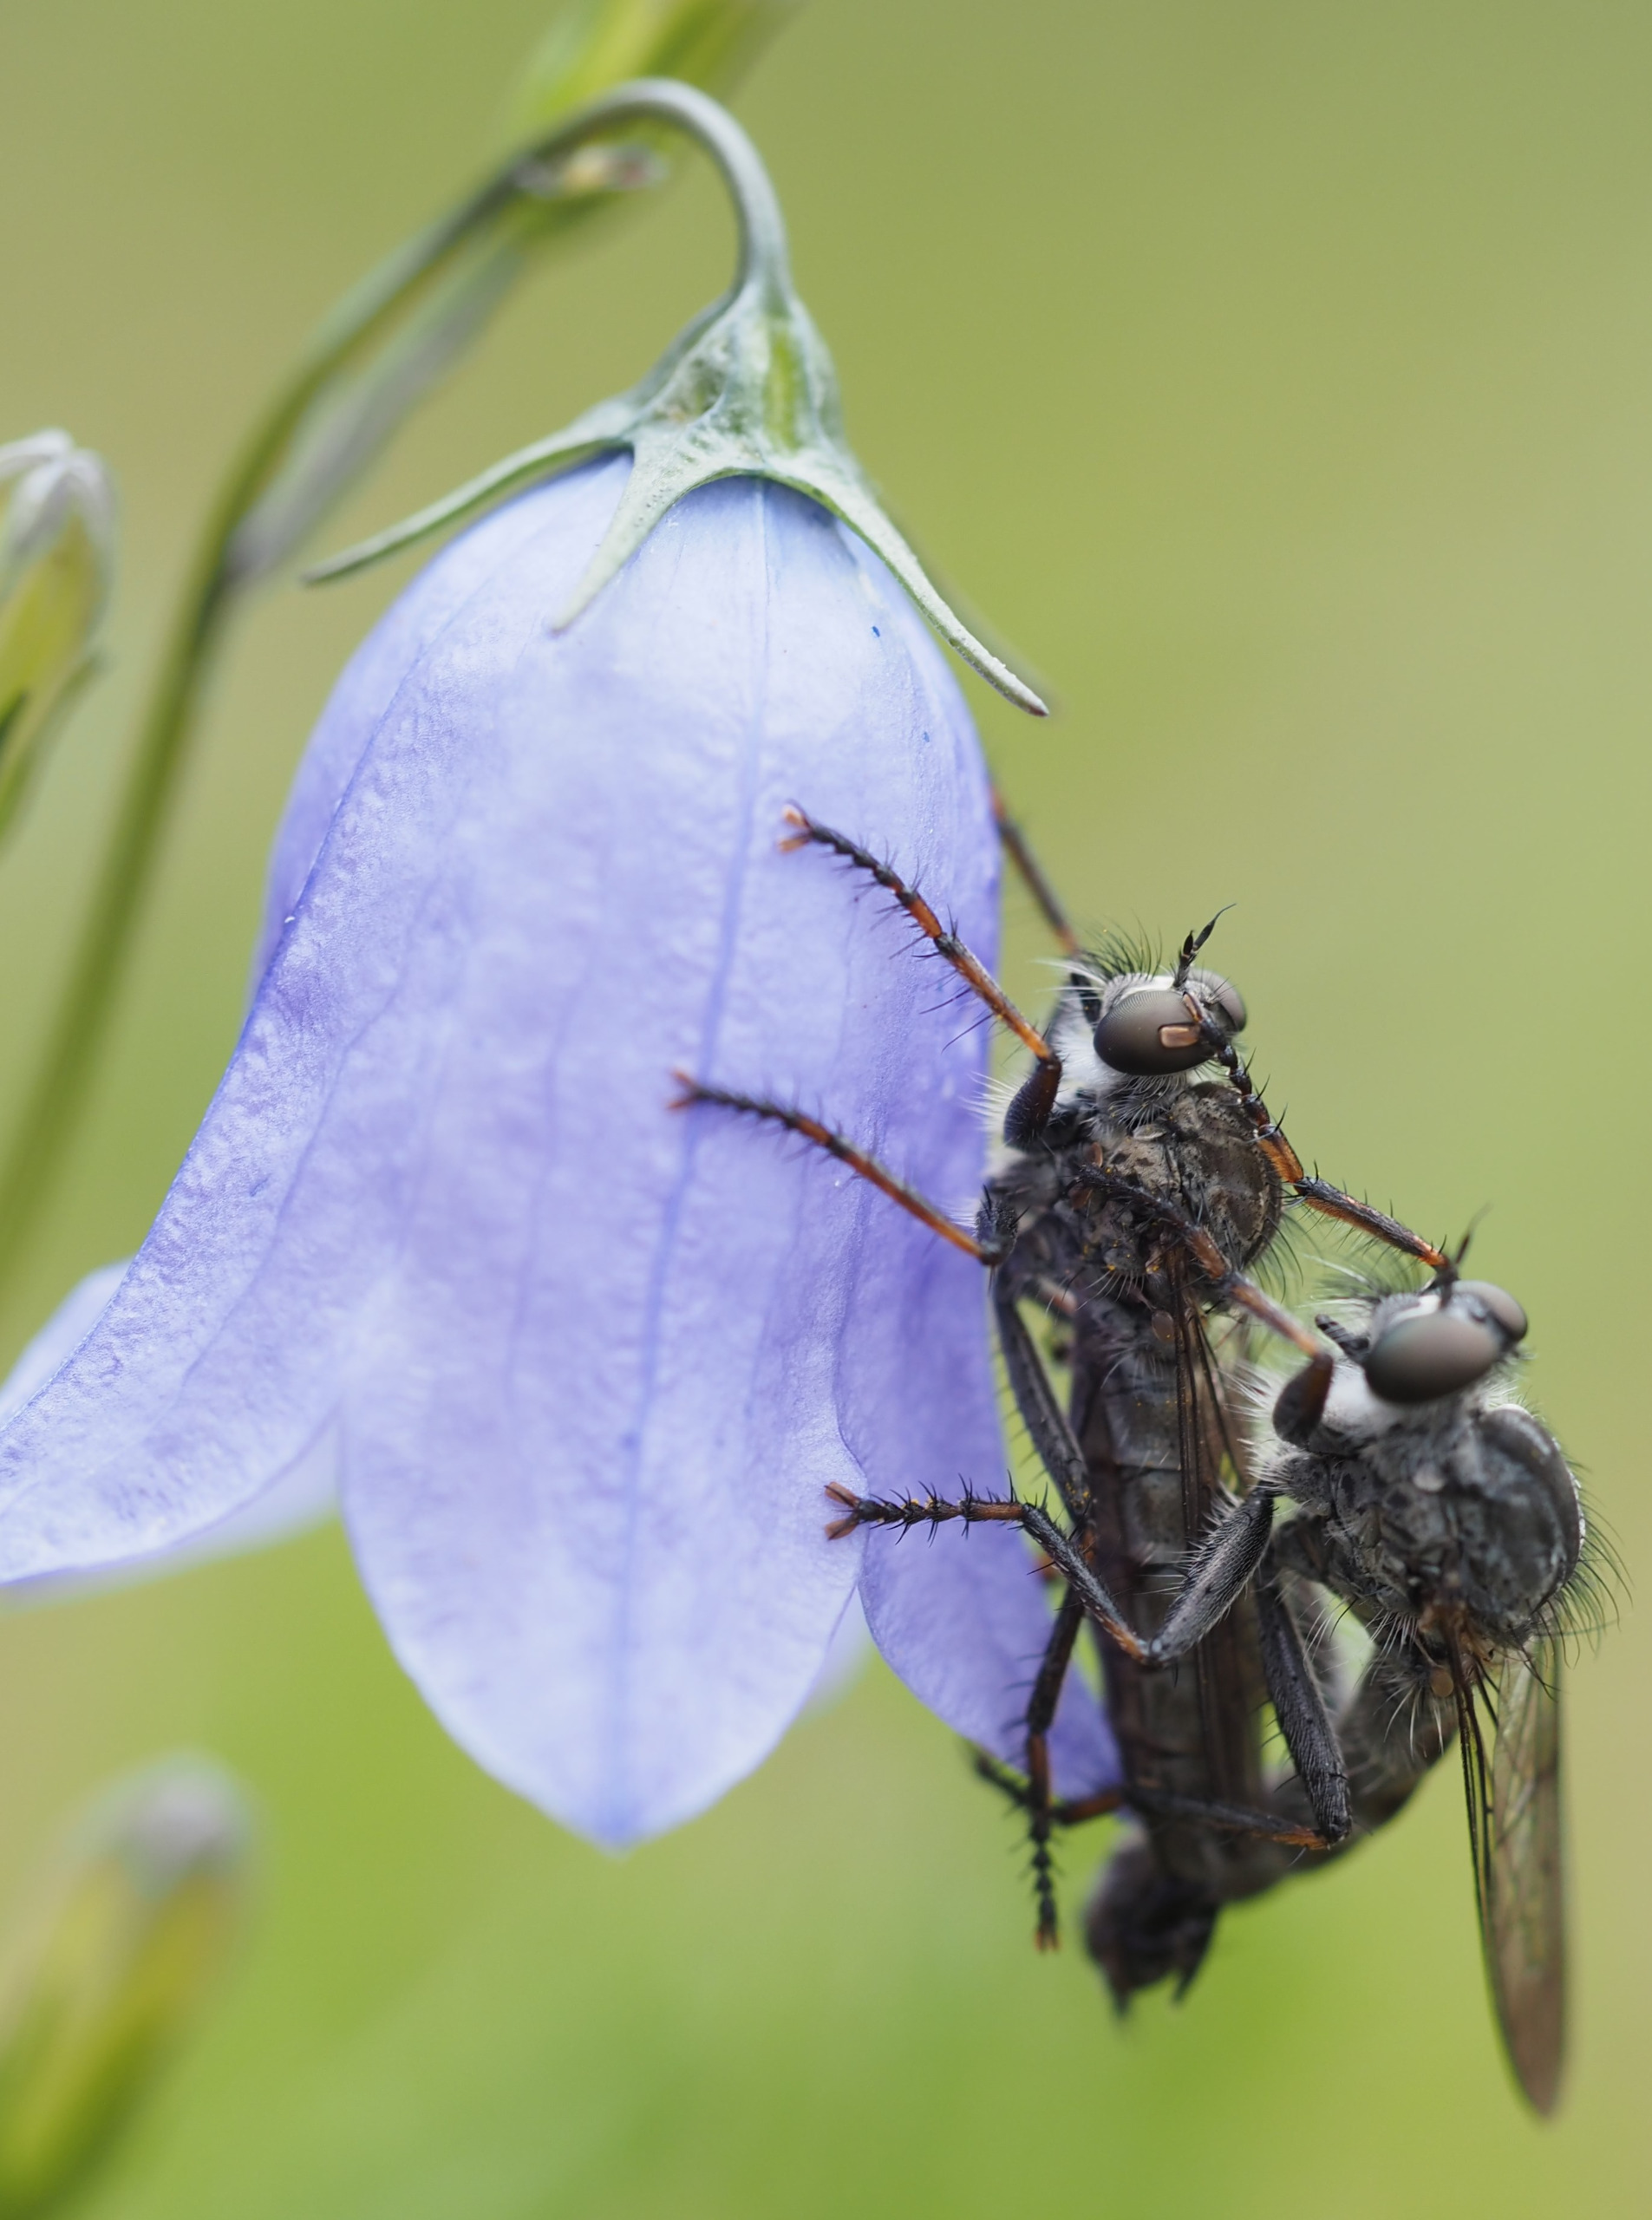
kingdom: Animalia
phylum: Arthropoda
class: Insecta
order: Diptera
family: Asilidae
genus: Machimus
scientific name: Machimus atricapillus
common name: Sort hårrovflue
